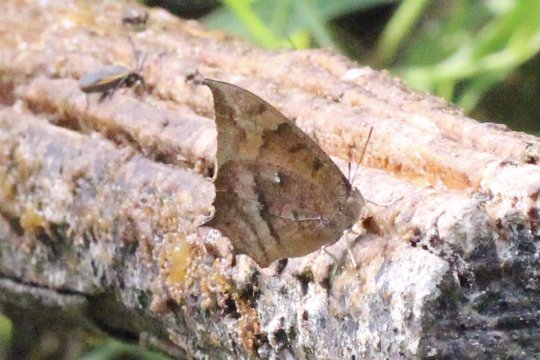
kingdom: Animalia
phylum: Arthropoda
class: Insecta
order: Lepidoptera
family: Nymphalidae
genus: Anaea
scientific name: Anaea aidea
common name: Tropical Leafwing
